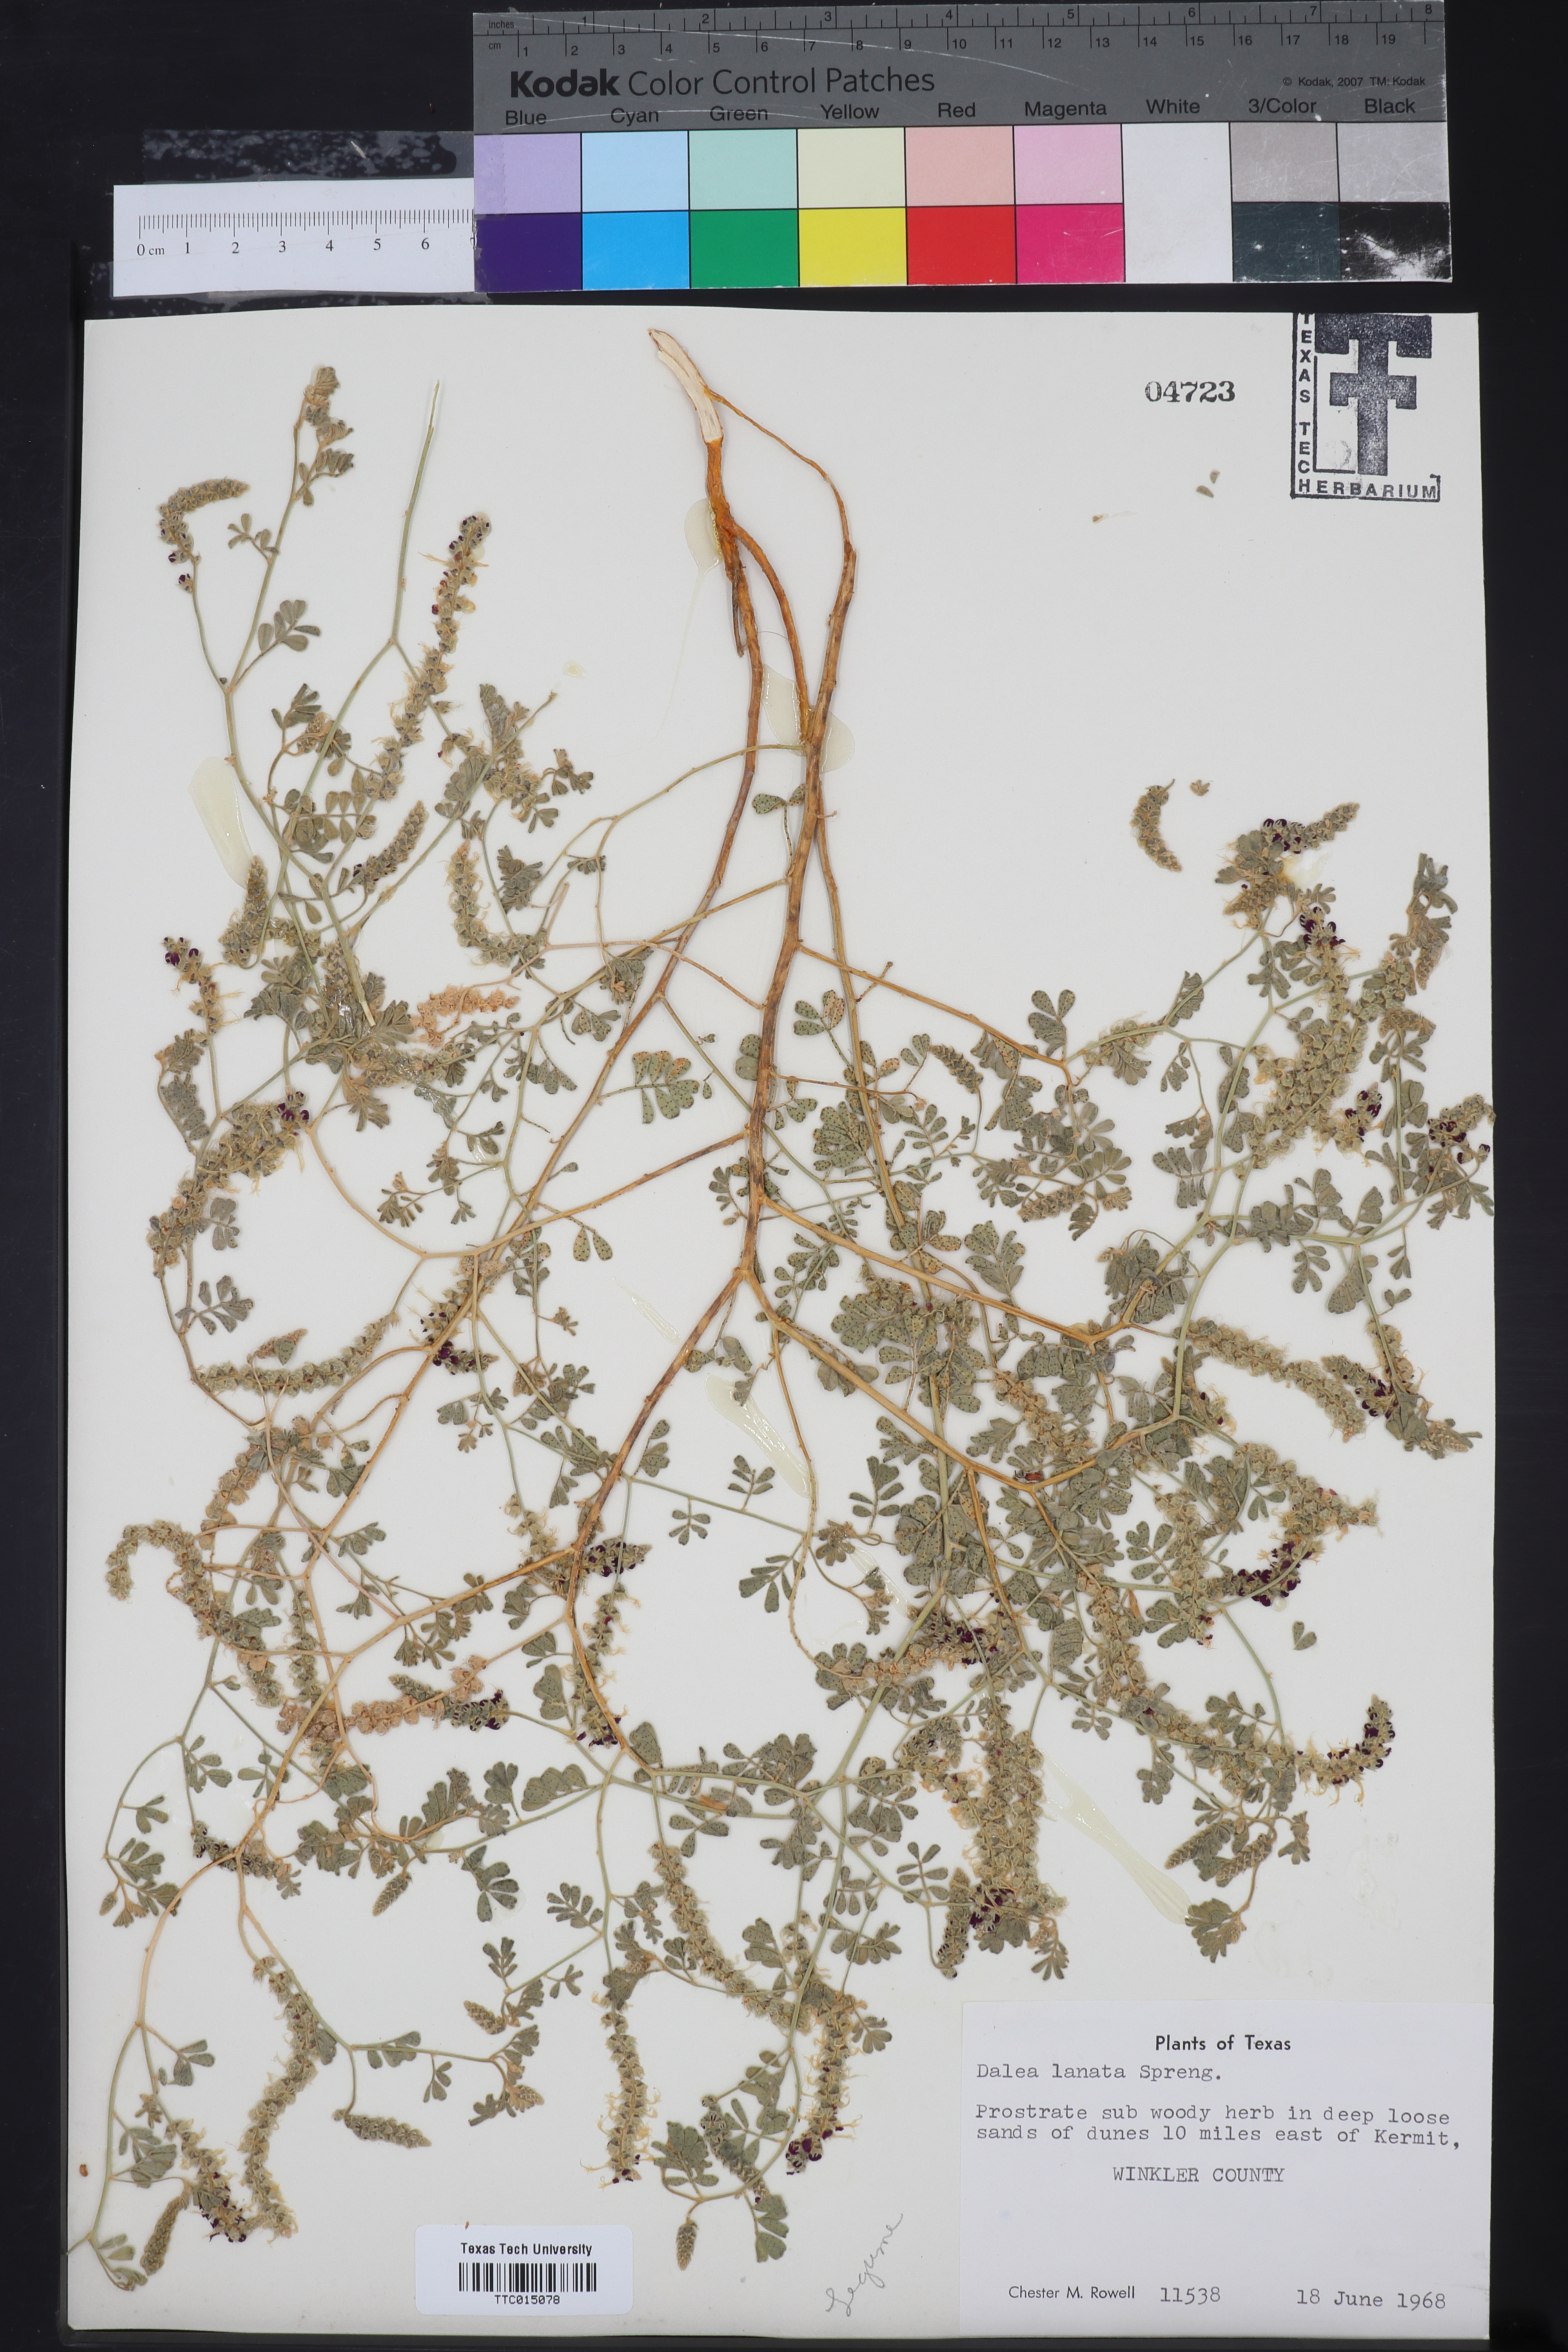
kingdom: Plantae
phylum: Tracheophyta
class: Magnoliopsida
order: Fabales
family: Fabaceae
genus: Dalea
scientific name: Dalea lanata
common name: Woolly dalea
